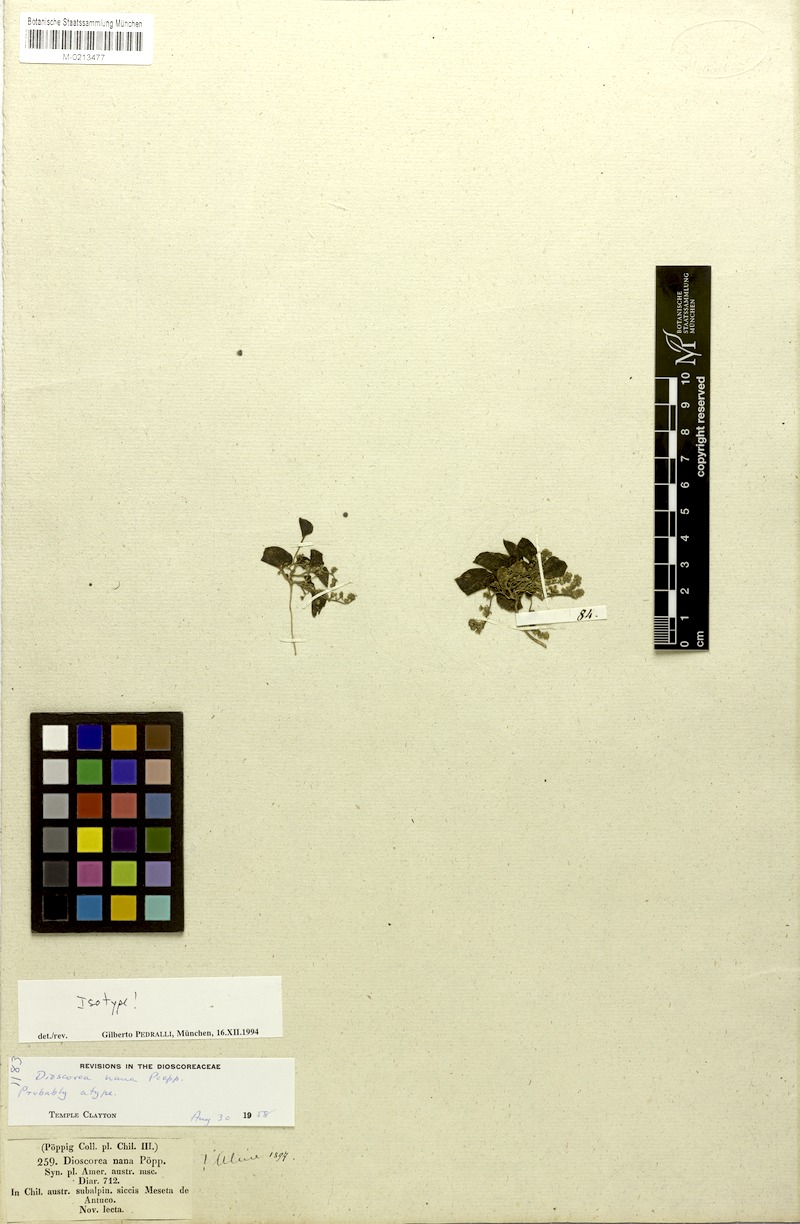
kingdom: Plantae
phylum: Tracheophyta
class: Liliopsida
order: Dioscoreales
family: Dioscoreaceae
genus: Dioscorea
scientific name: Dioscorea nana
